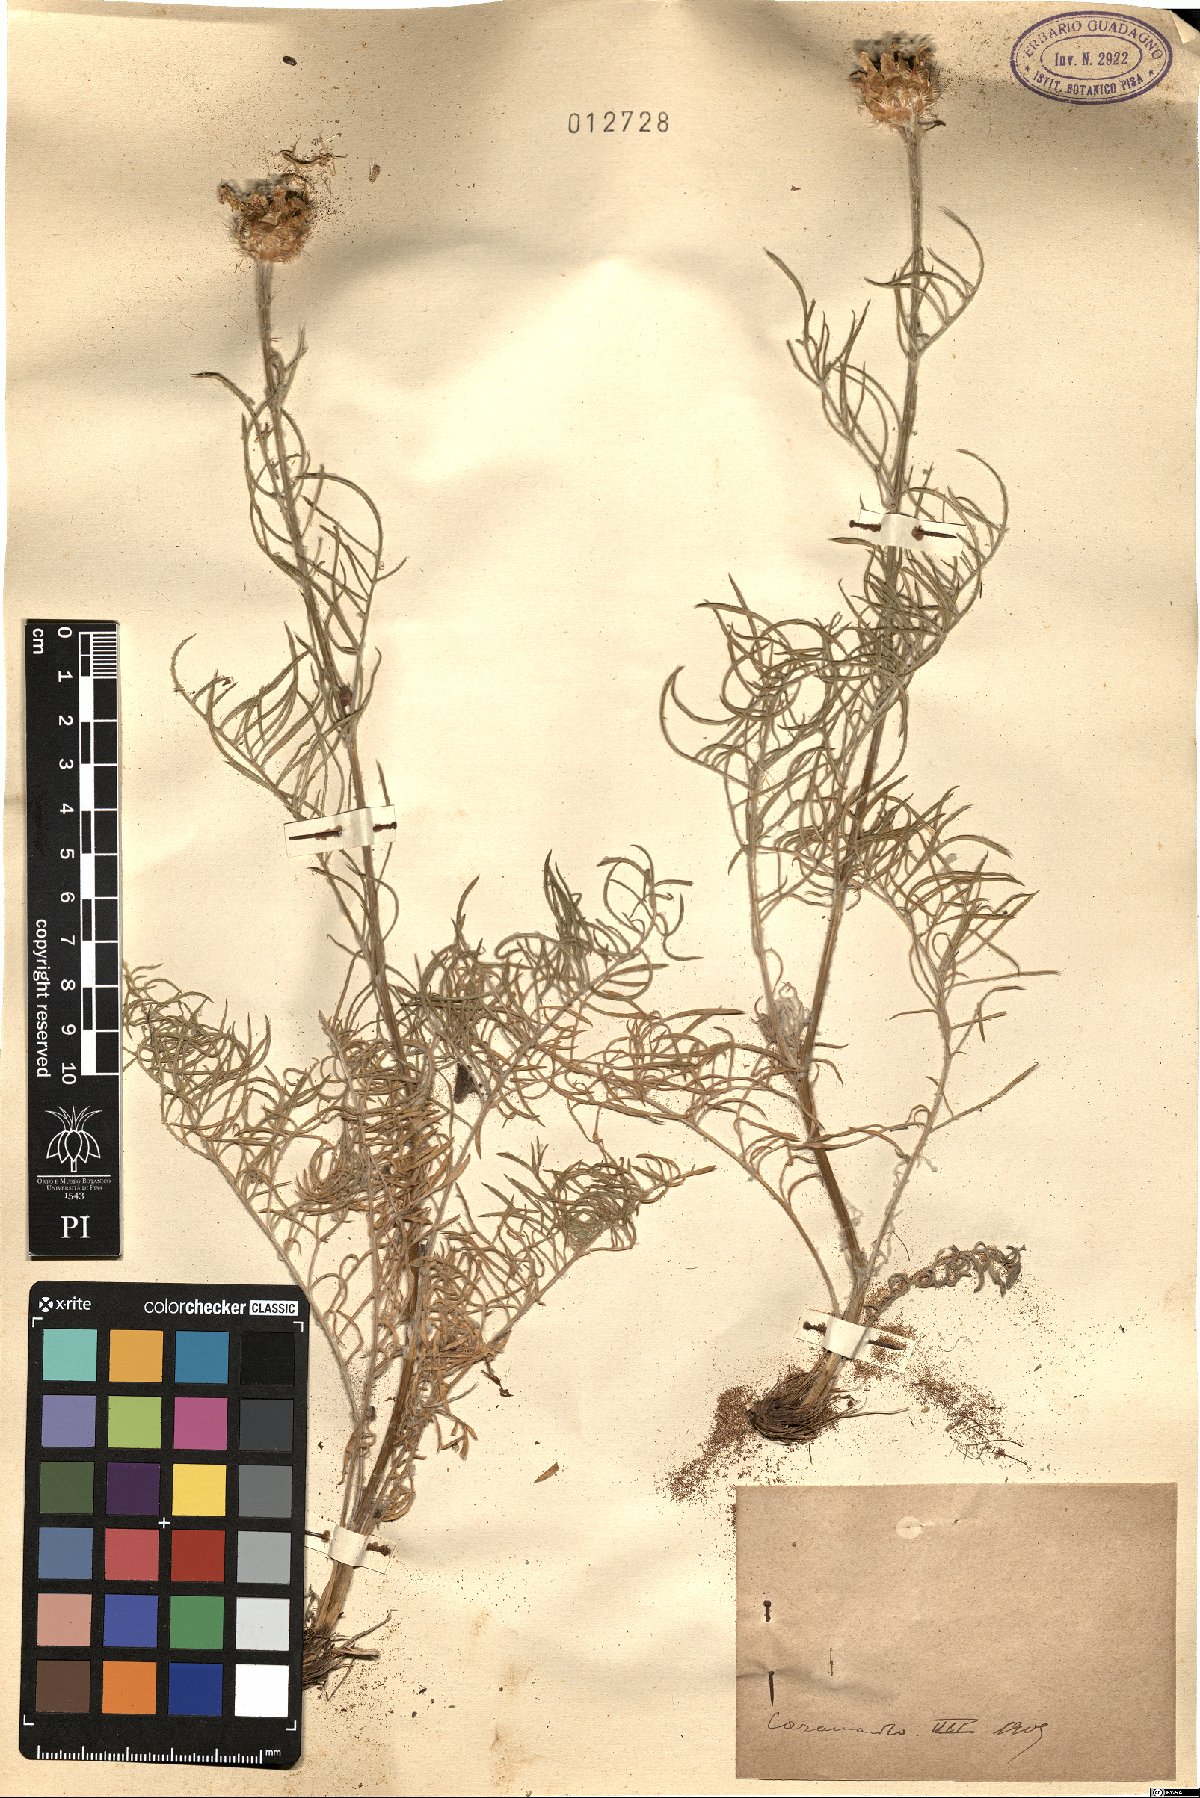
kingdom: Plantae
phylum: Tracheophyta
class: Magnoliopsida
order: Asterales
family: Asteraceae
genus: Centaurea
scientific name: Centaurea
